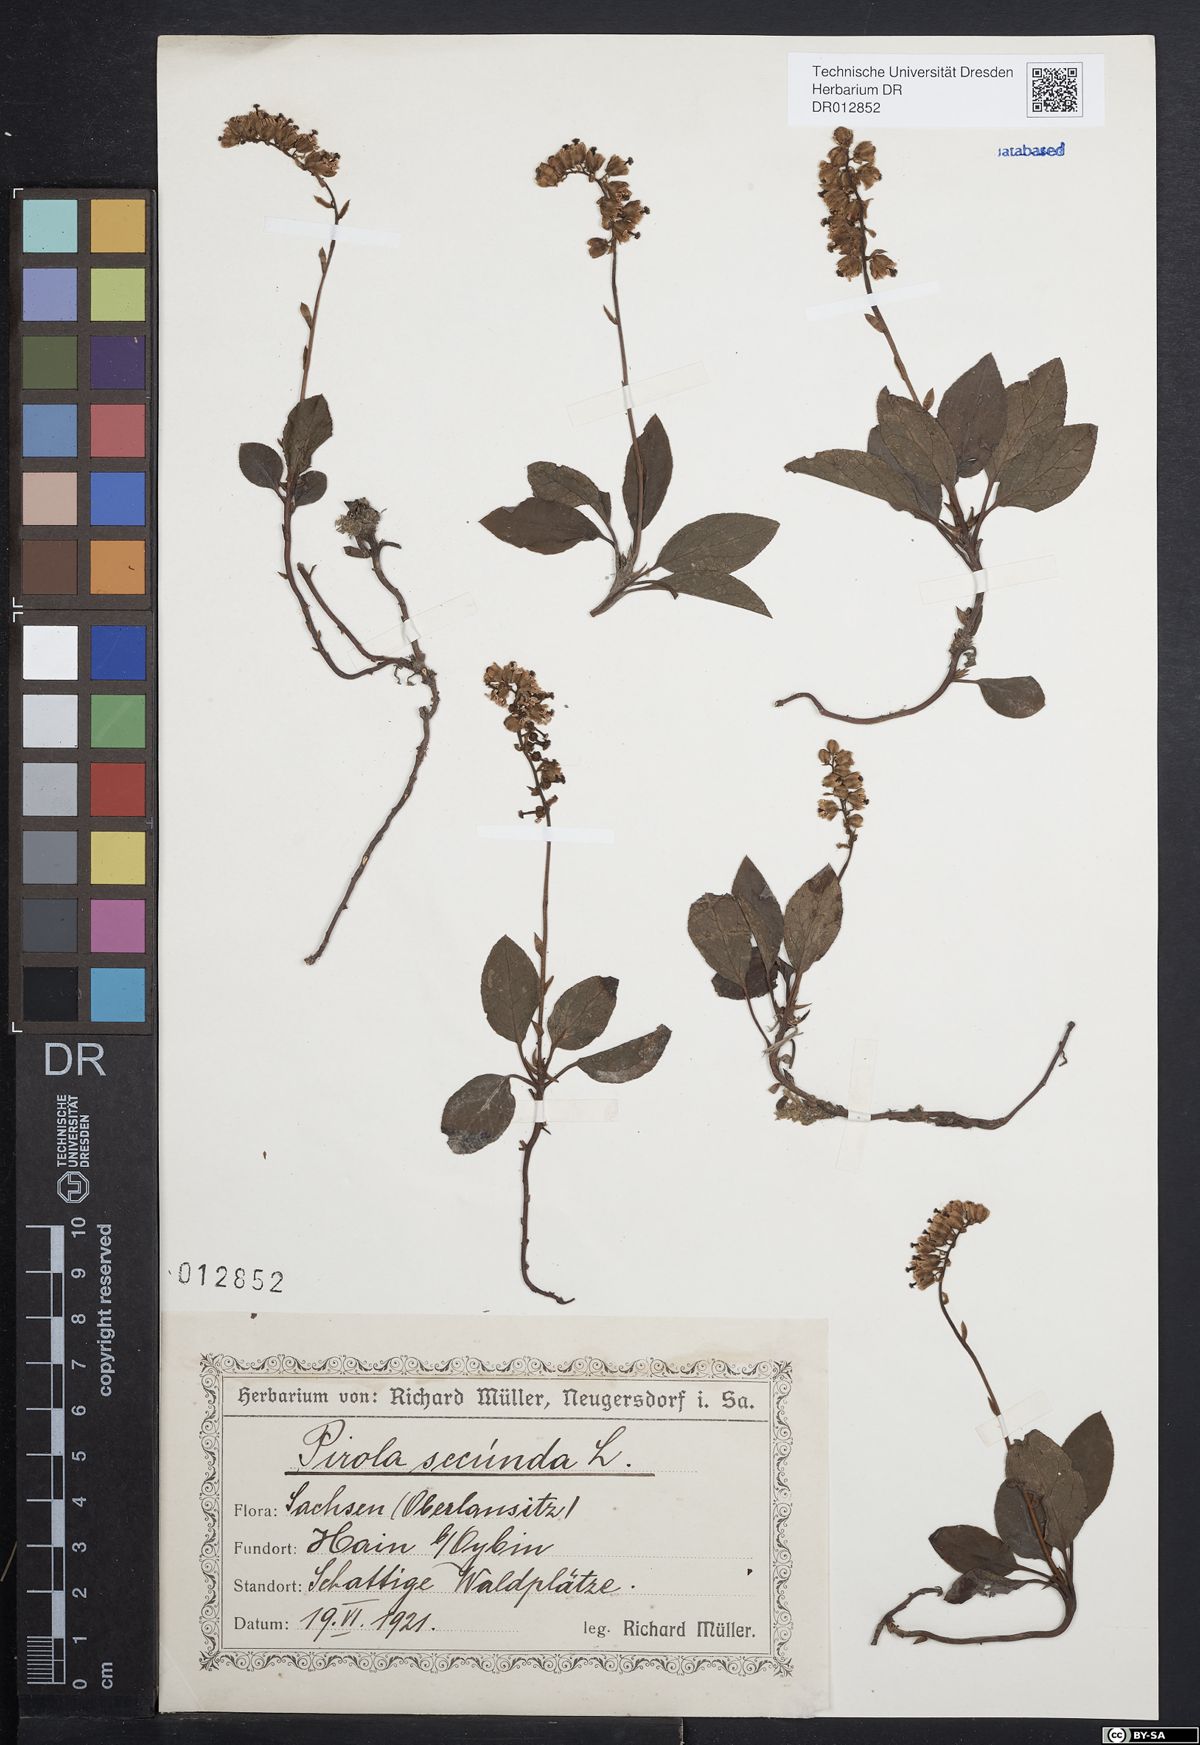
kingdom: Plantae
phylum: Tracheophyta
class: Magnoliopsida
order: Ericales
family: Ericaceae
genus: Orthilia
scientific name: Orthilia secunda
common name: One-sided orthilia
